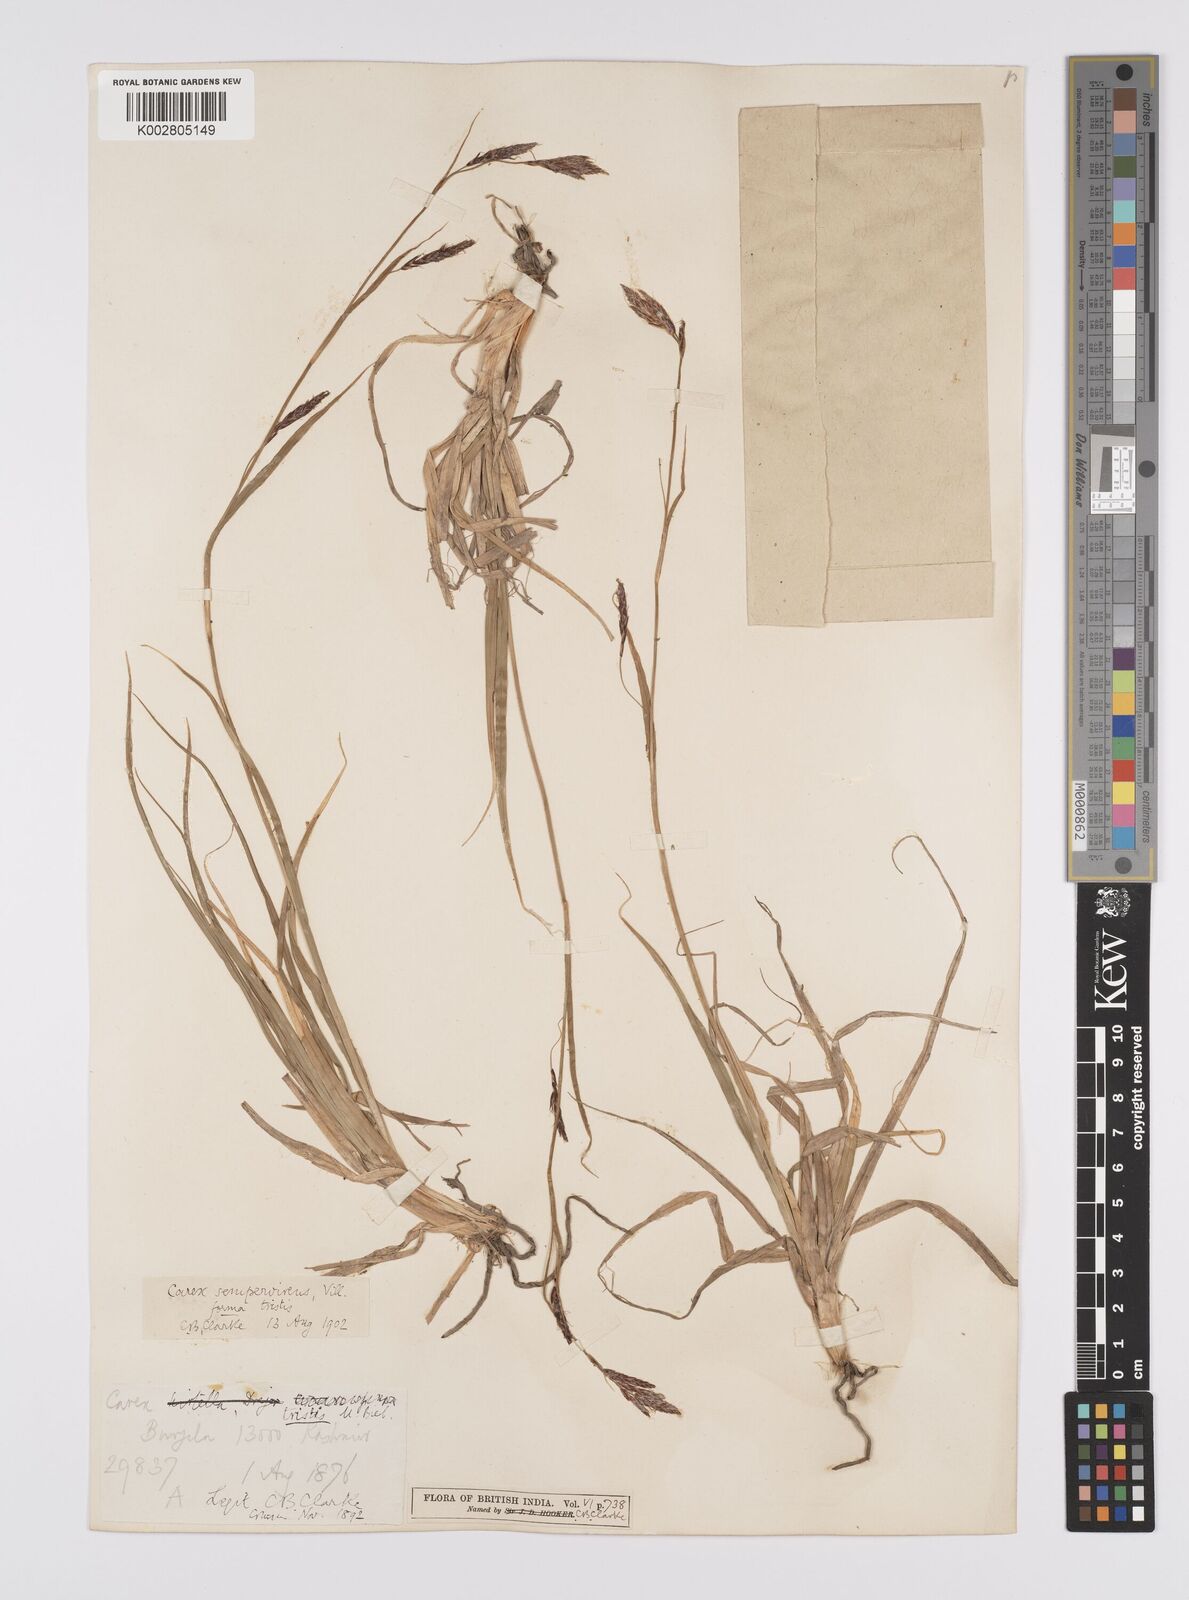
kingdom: Plantae
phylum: Tracheophyta
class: Liliopsida
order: Poales
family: Cyperaceae
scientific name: Cyperaceae
